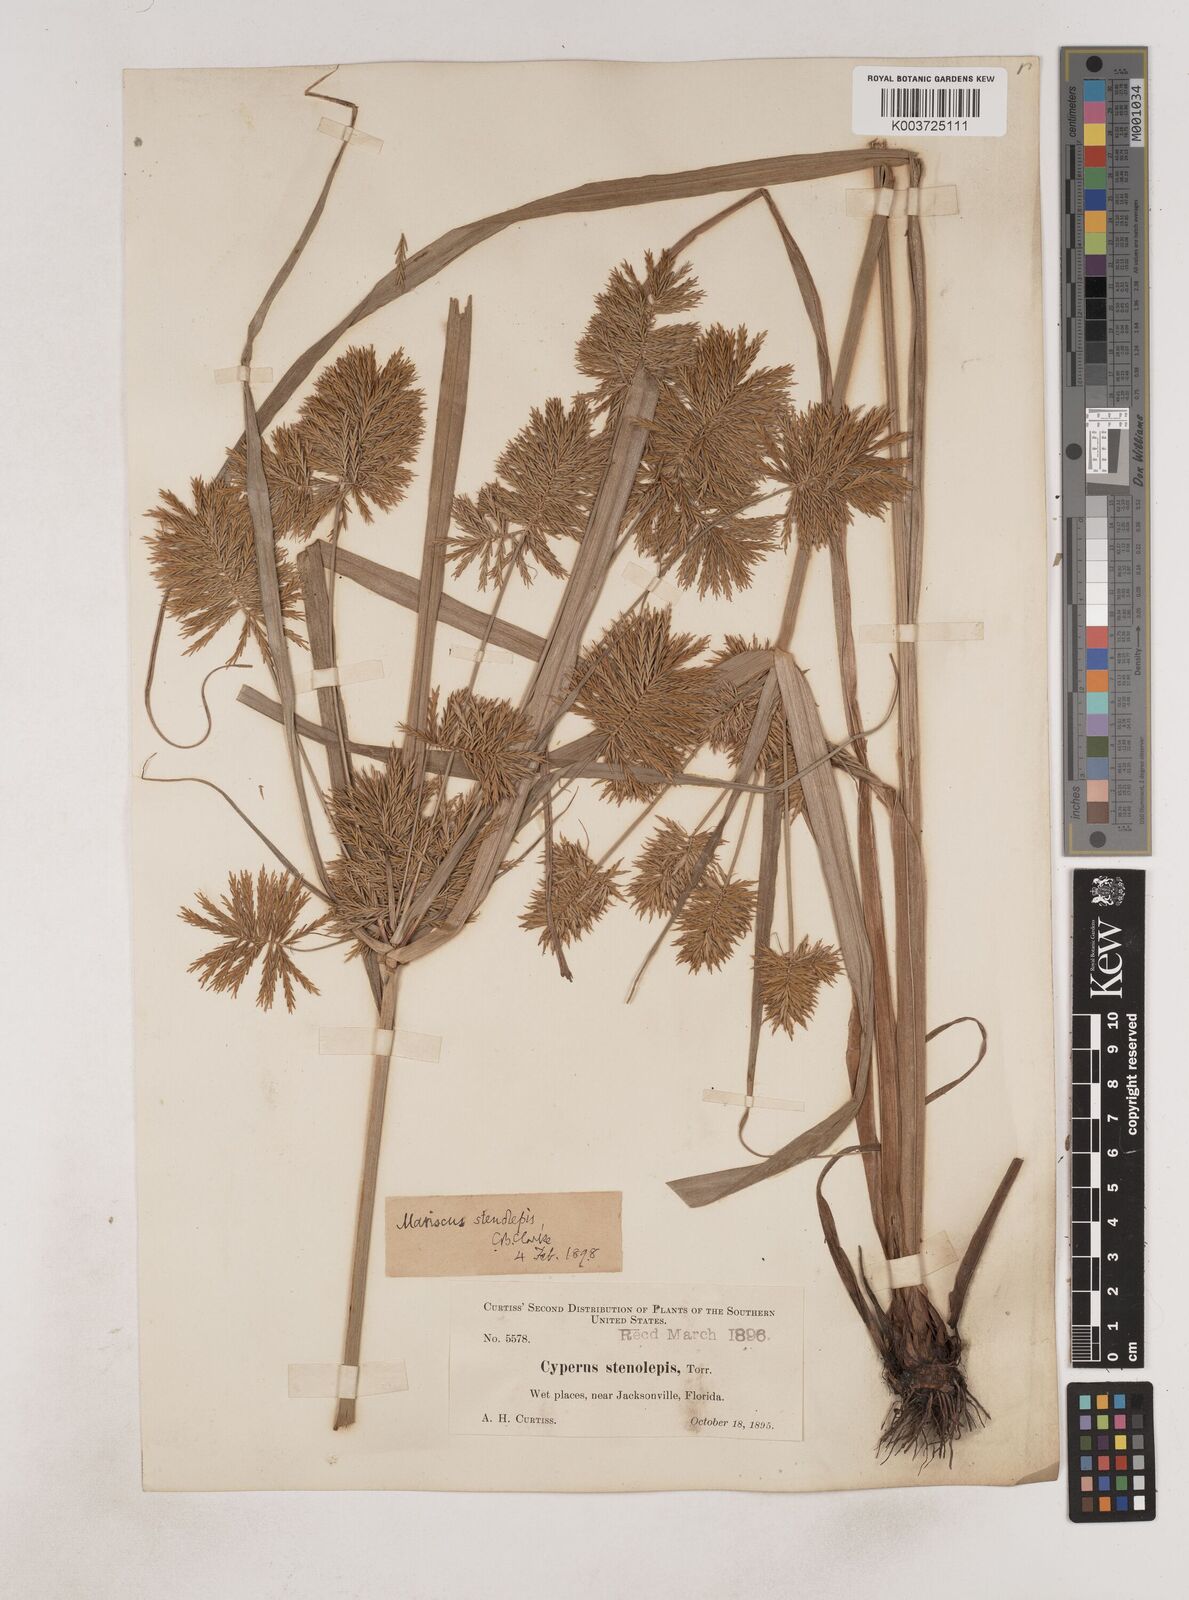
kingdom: Plantae
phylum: Tracheophyta
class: Liliopsida
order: Poales
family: Cyperaceae
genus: Cyperus
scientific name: Cyperus strigosus
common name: False nutsedge
